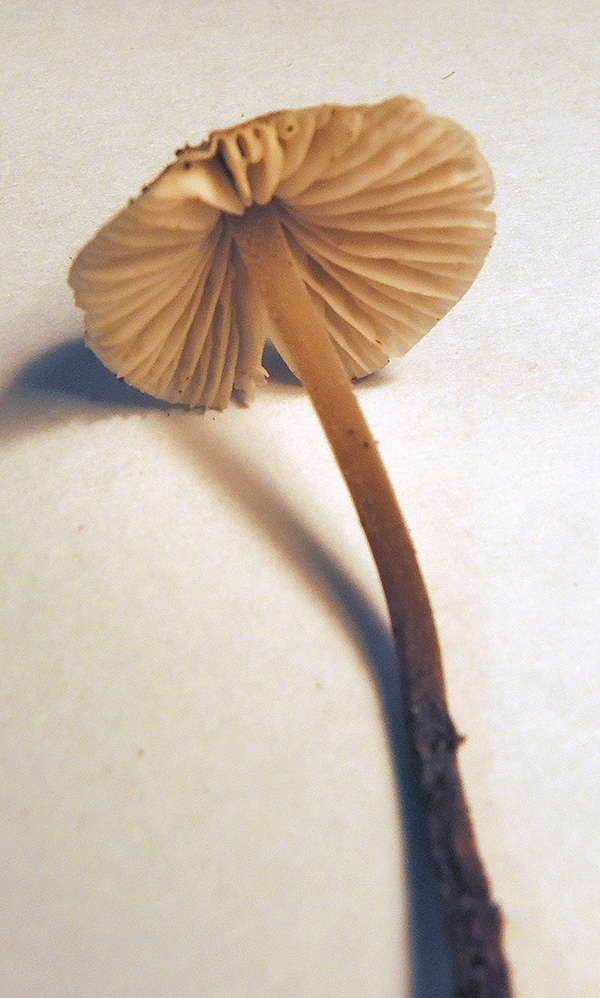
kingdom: Fungi
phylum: Basidiomycota
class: Agaricomycetes
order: Agaricales
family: Tricholomataceae
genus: Mycenella
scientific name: Mycenella trachyspora
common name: rødprikket dughat
